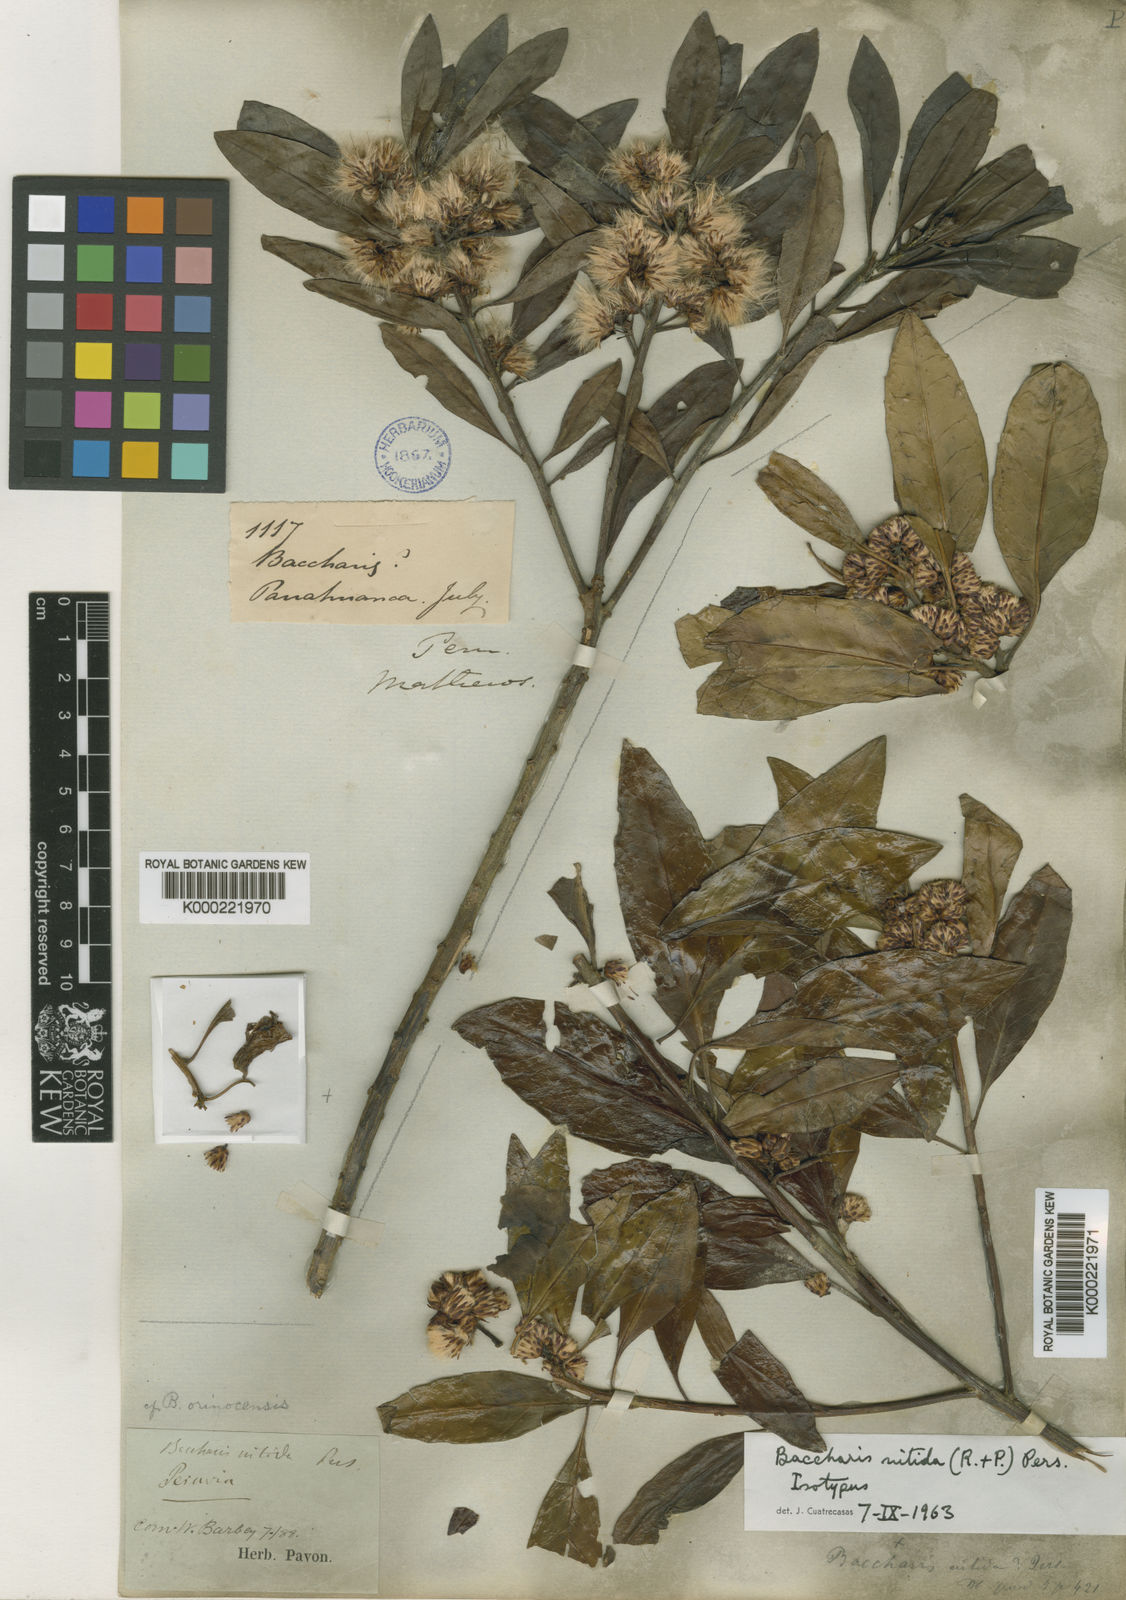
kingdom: Plantae
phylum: Tracheophyta
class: Magnoliopsida
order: Asterales
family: Asteraceae
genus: Baccharis
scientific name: Baccharis nitida
